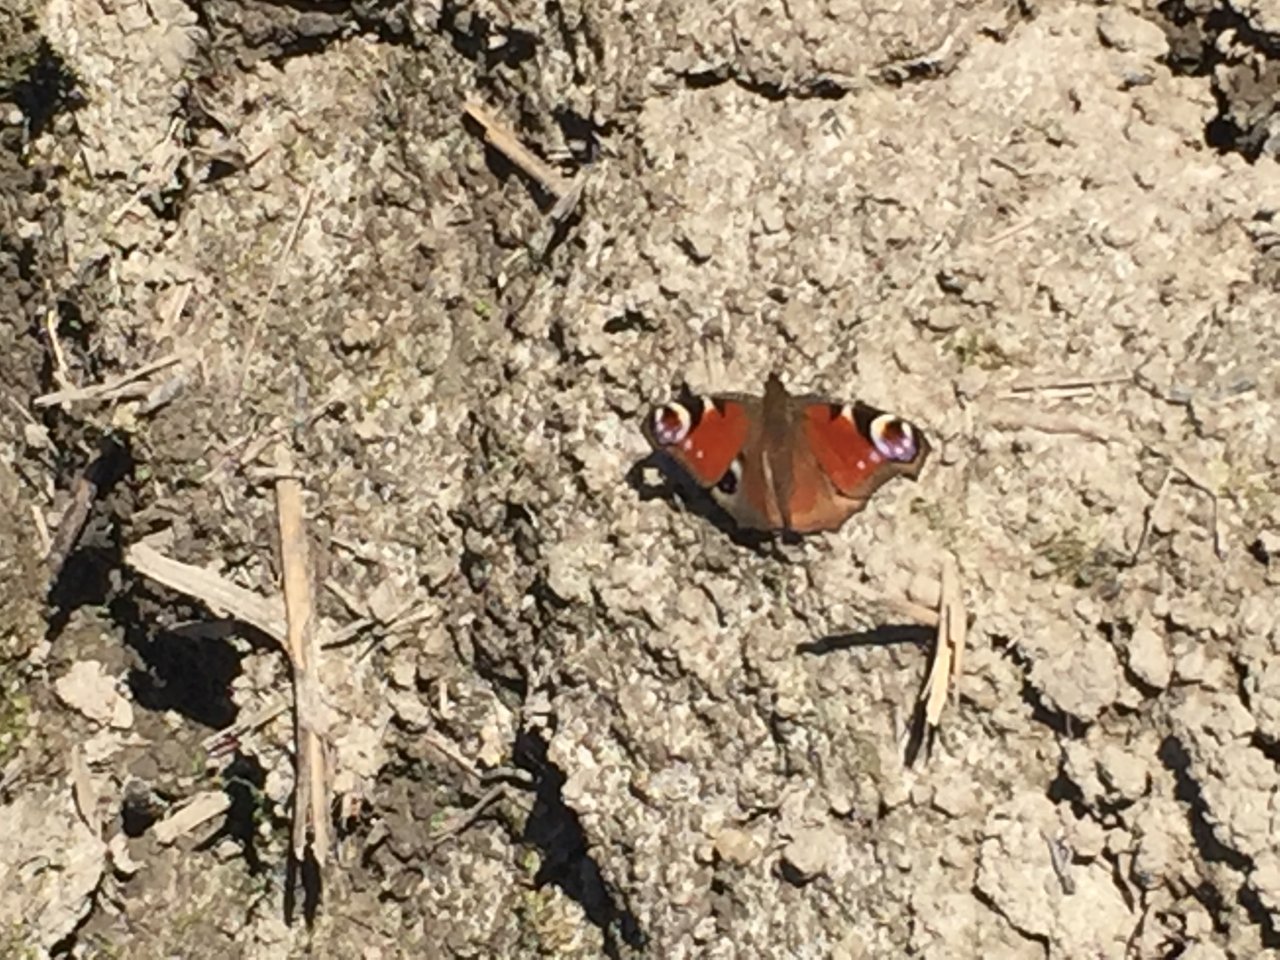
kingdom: Animalia
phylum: Arthropoda
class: Insecta
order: Lepidoptera
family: Nymphalidae
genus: Aglais
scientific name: Aglais io
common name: European Peacock
